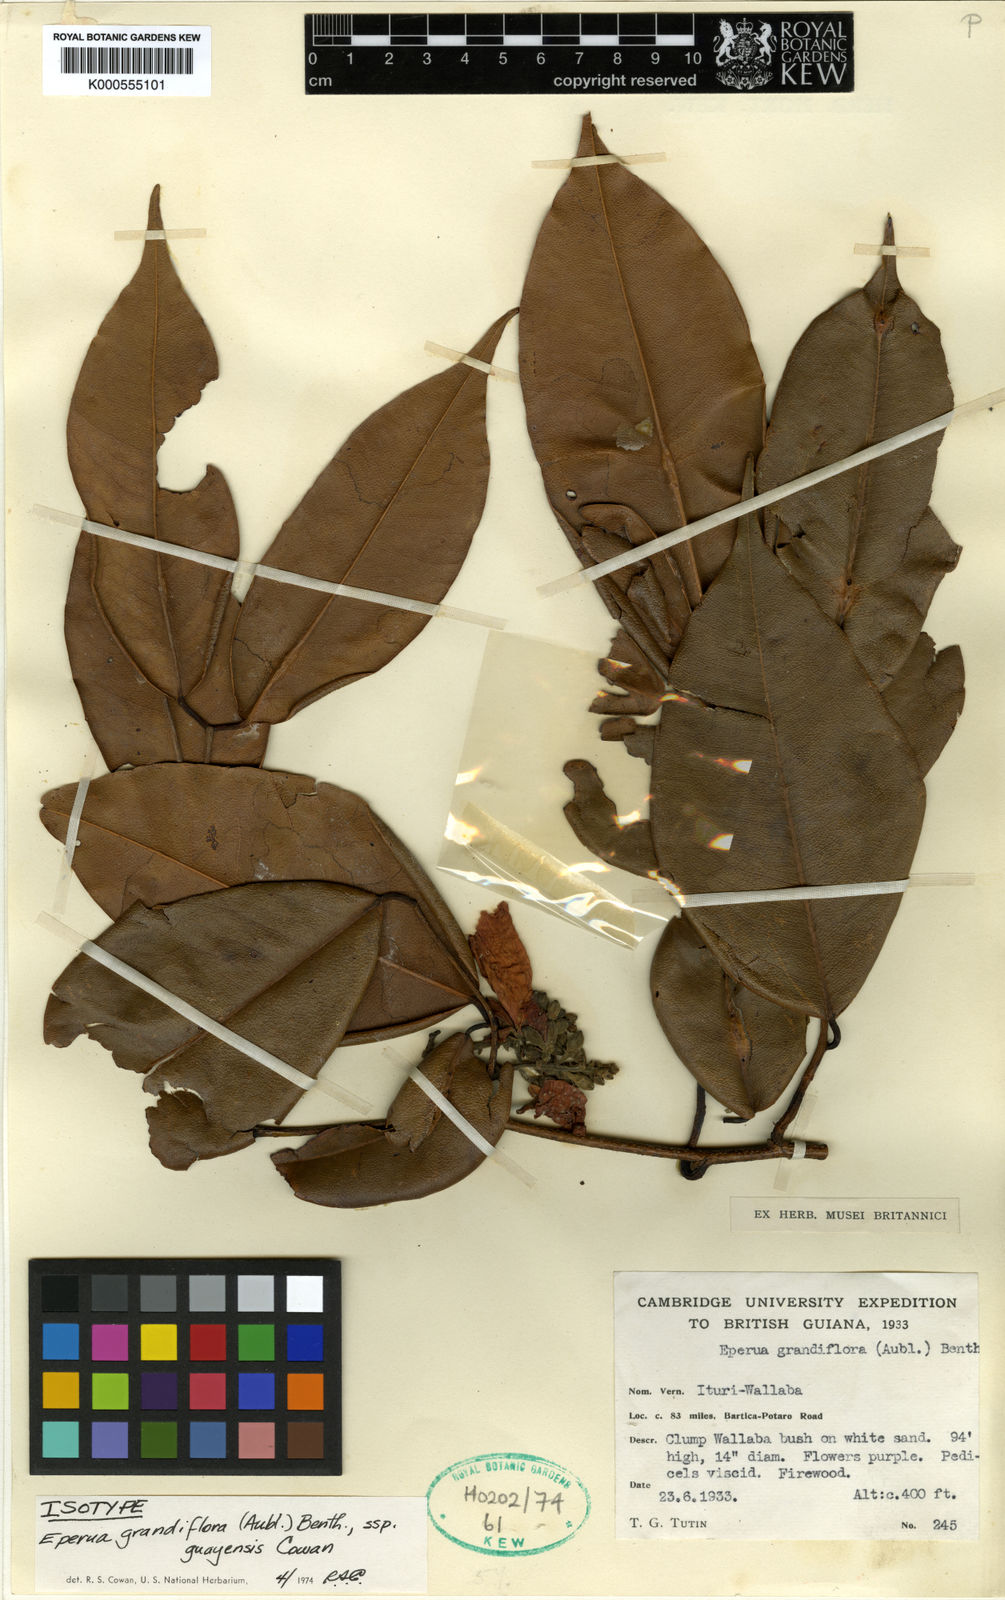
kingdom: Plantae
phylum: Tracheophyta
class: Magnoliopsida
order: Fabales
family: Fabaceae
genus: Eperua
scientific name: Eperua grandiflora
